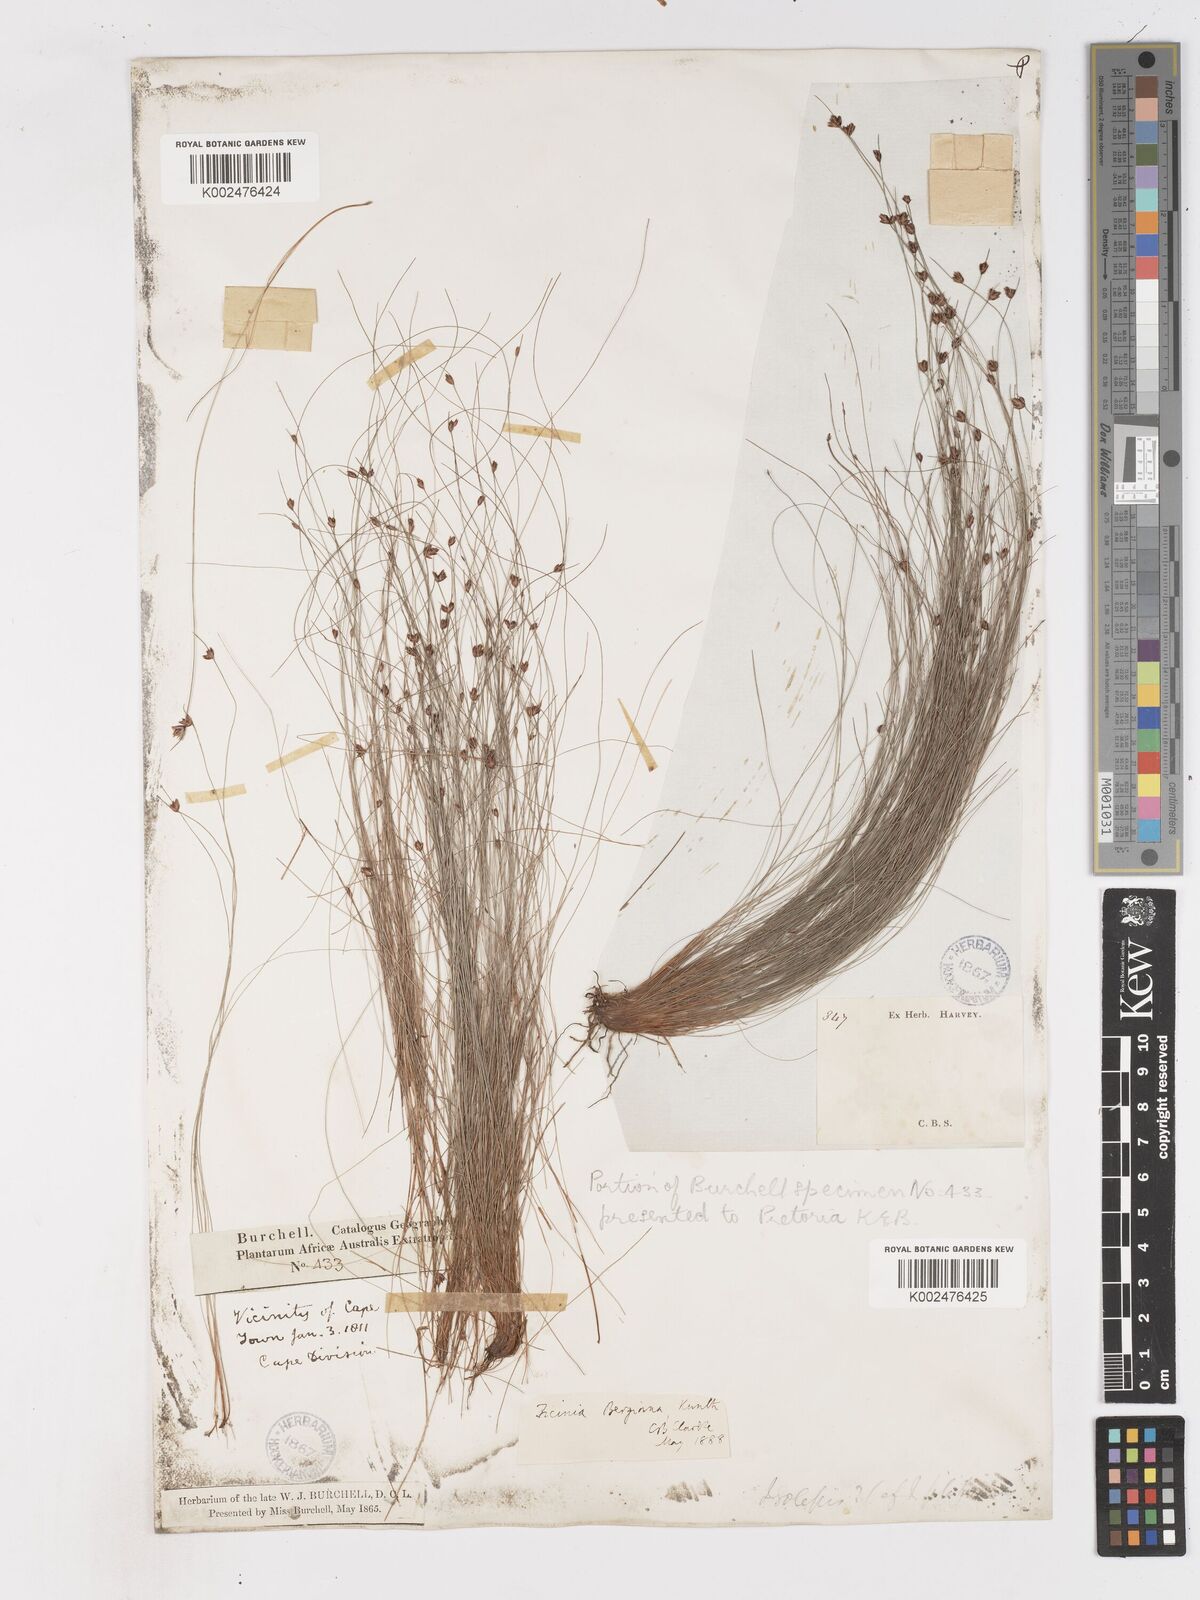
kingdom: Plantae
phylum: Tracheophyta
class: Liliopsida
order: Poales
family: Cyperaceae
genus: Ficinia
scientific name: Ficinia crinita
